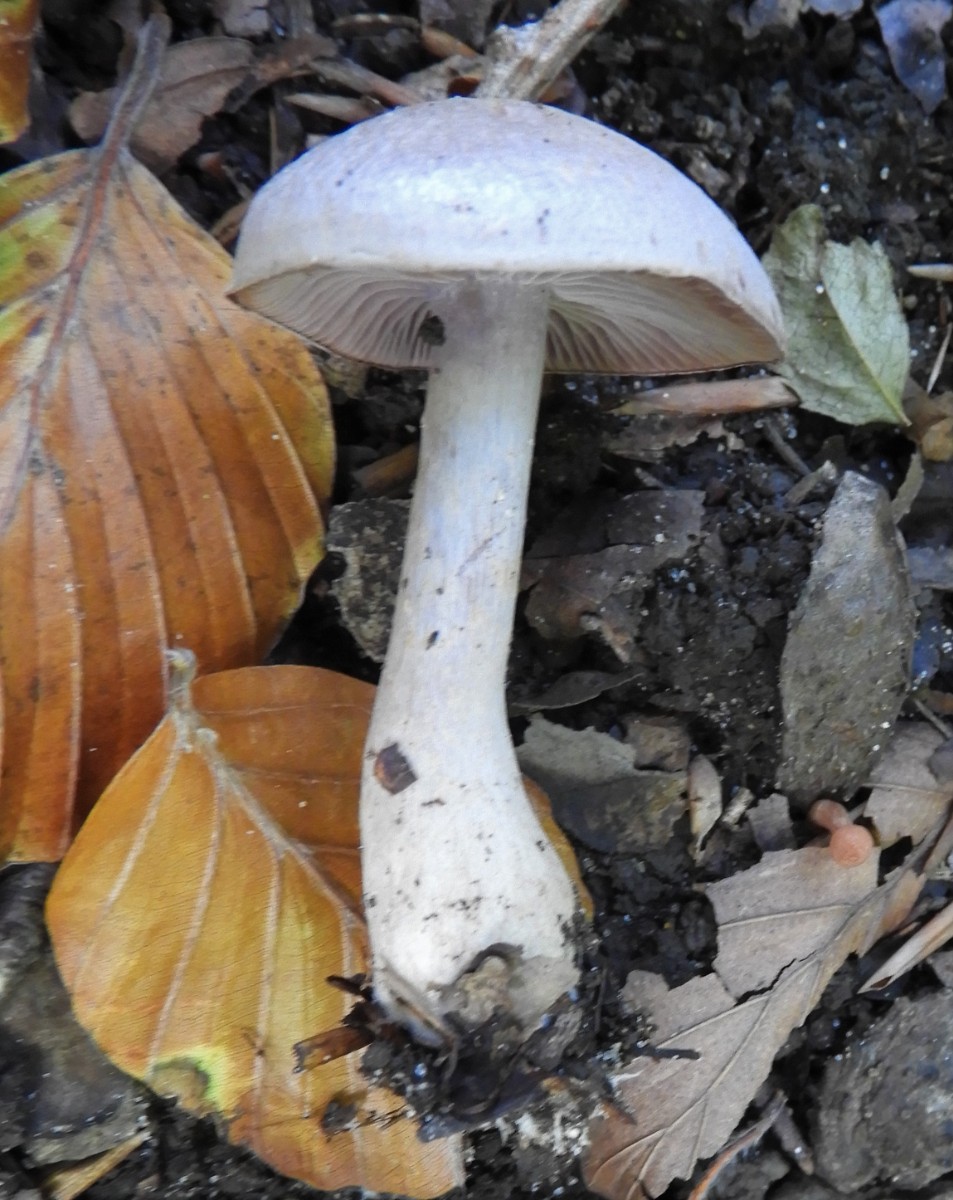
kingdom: Fungi
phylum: Basidiomycota
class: Agaricomycetes
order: Agaricales
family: Tricholomataceae
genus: Lepista
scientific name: Lepista nuda
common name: violet hekseringshat
